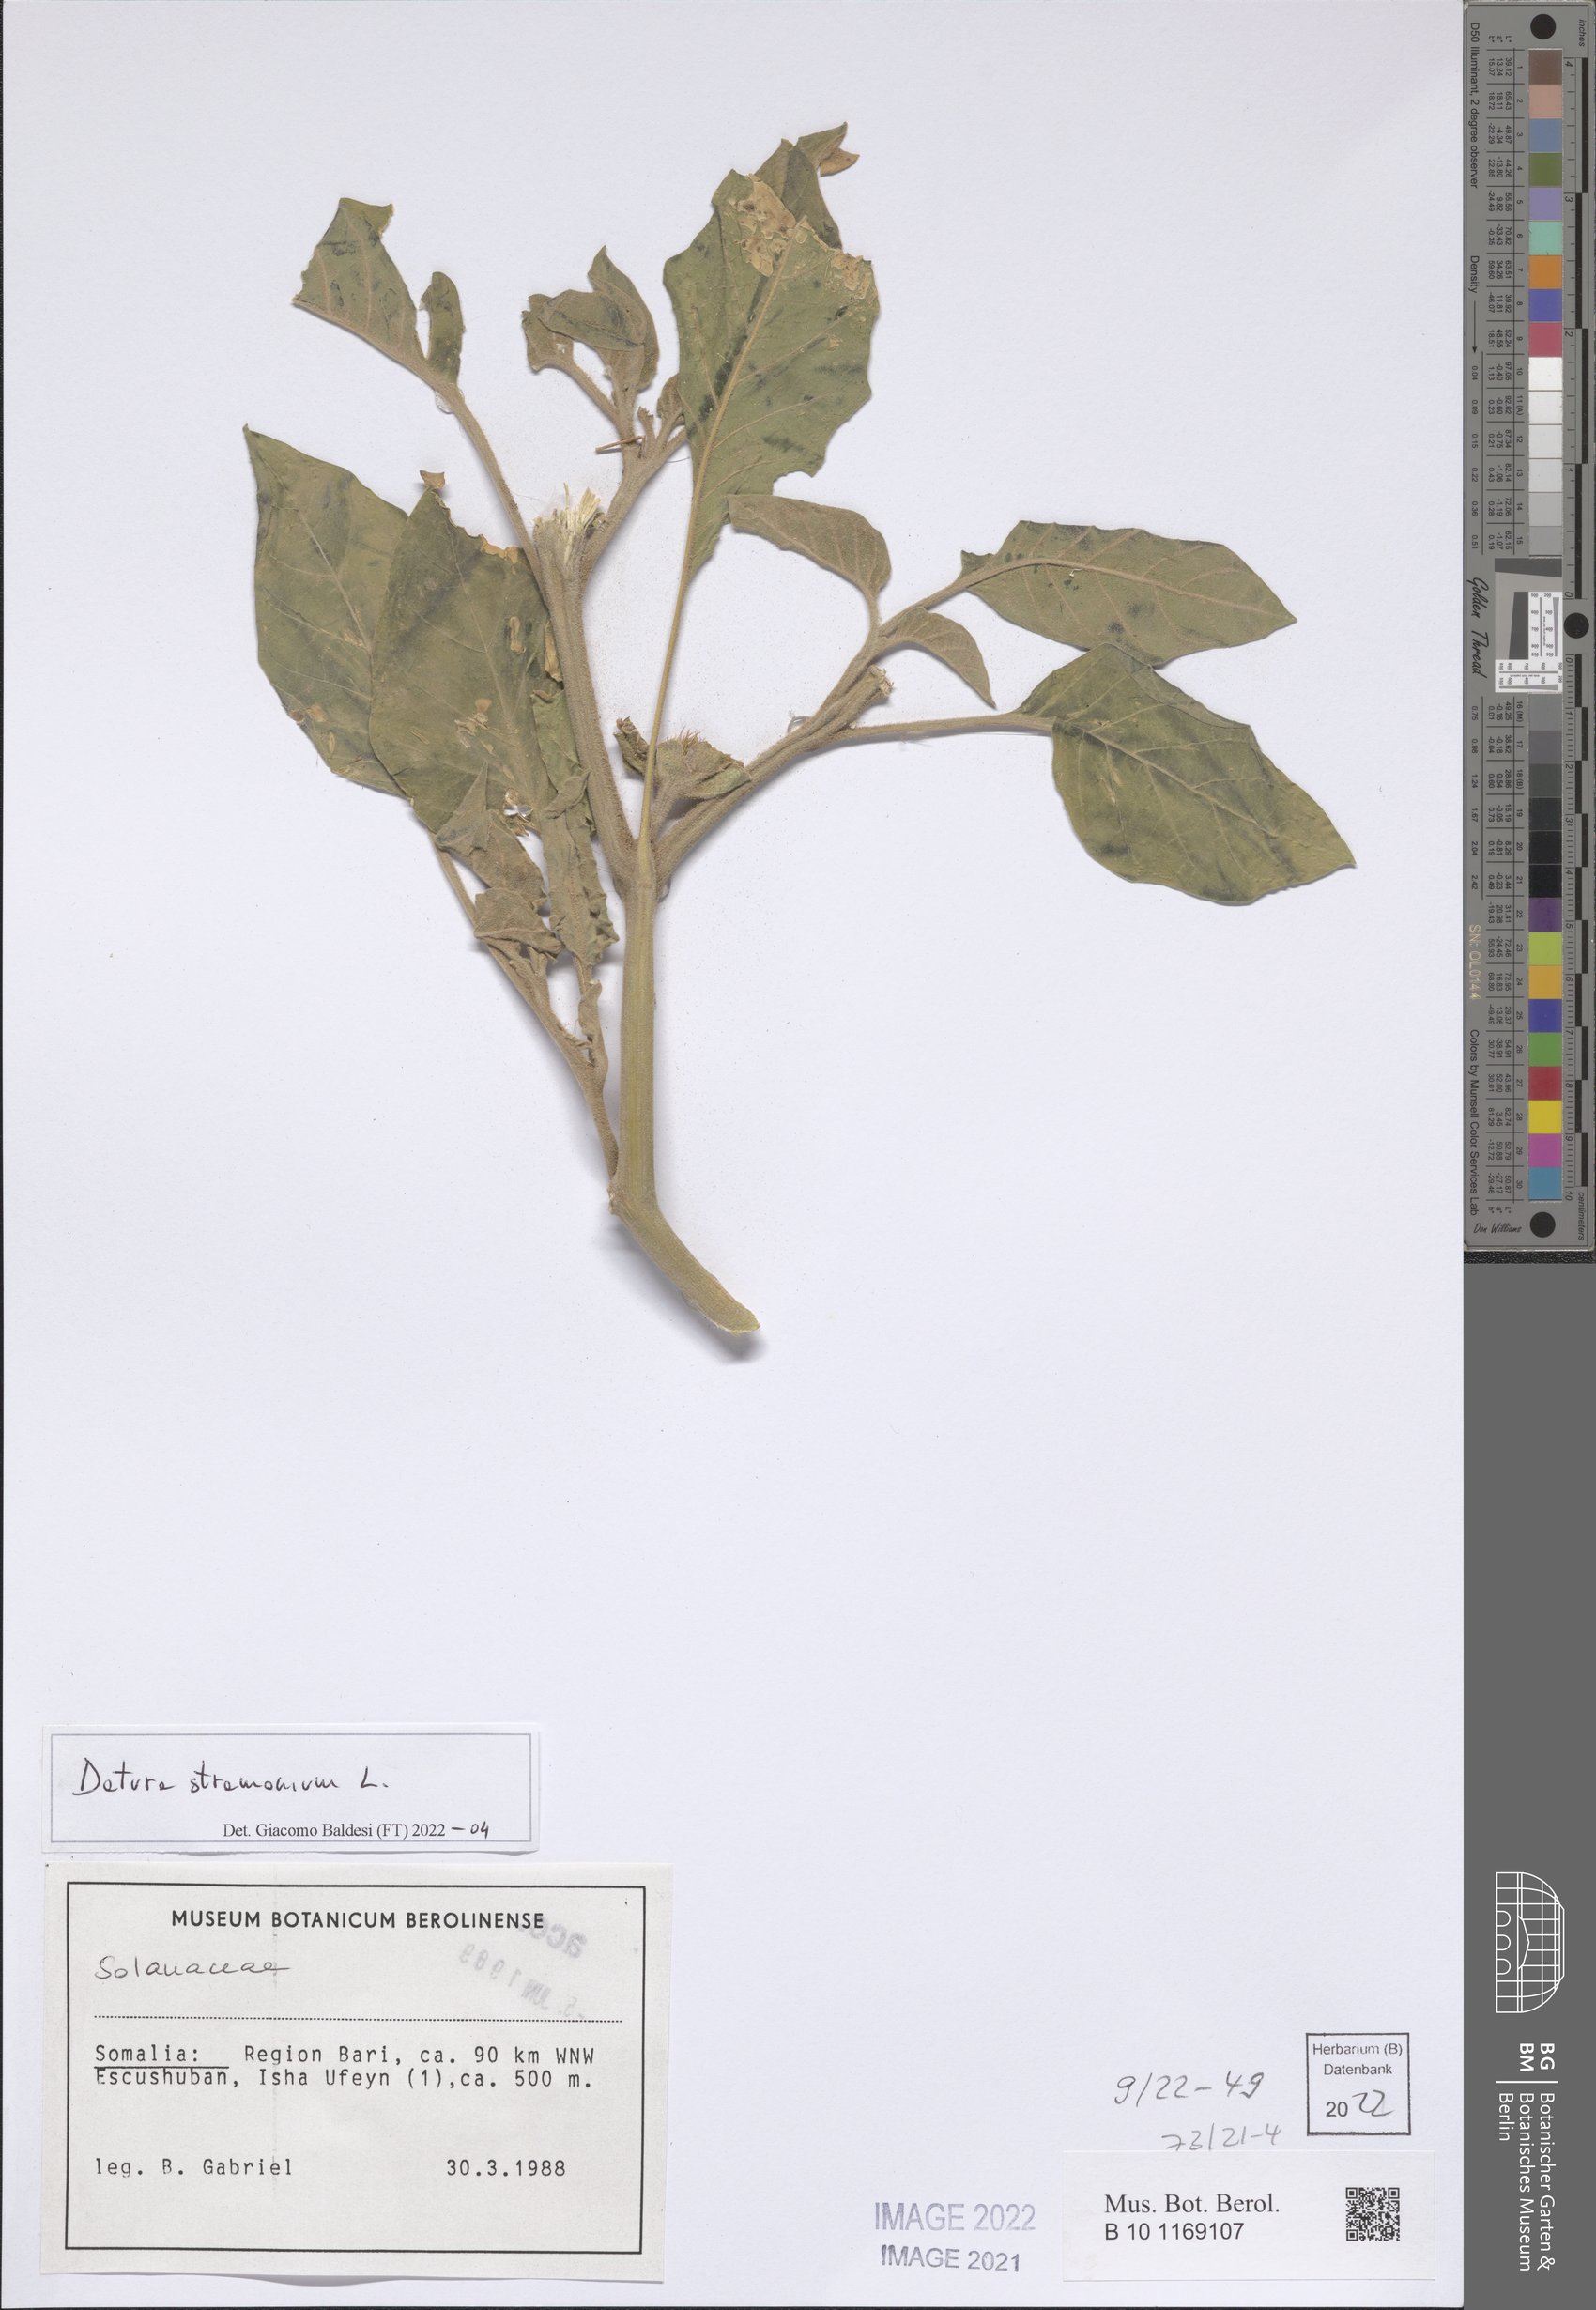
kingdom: Plantae
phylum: Tracheophyta
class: Magnoliopsida
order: Solanales
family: Solanaceae
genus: Datura
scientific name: Datura stramonium
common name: Thorn-apple
